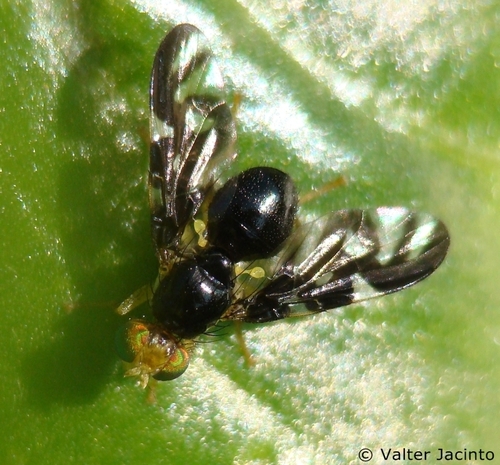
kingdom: Animalia
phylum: Arthropoda
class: Insecta
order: Diptera
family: Tephritidae
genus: Euleia
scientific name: Euleia heraclei
